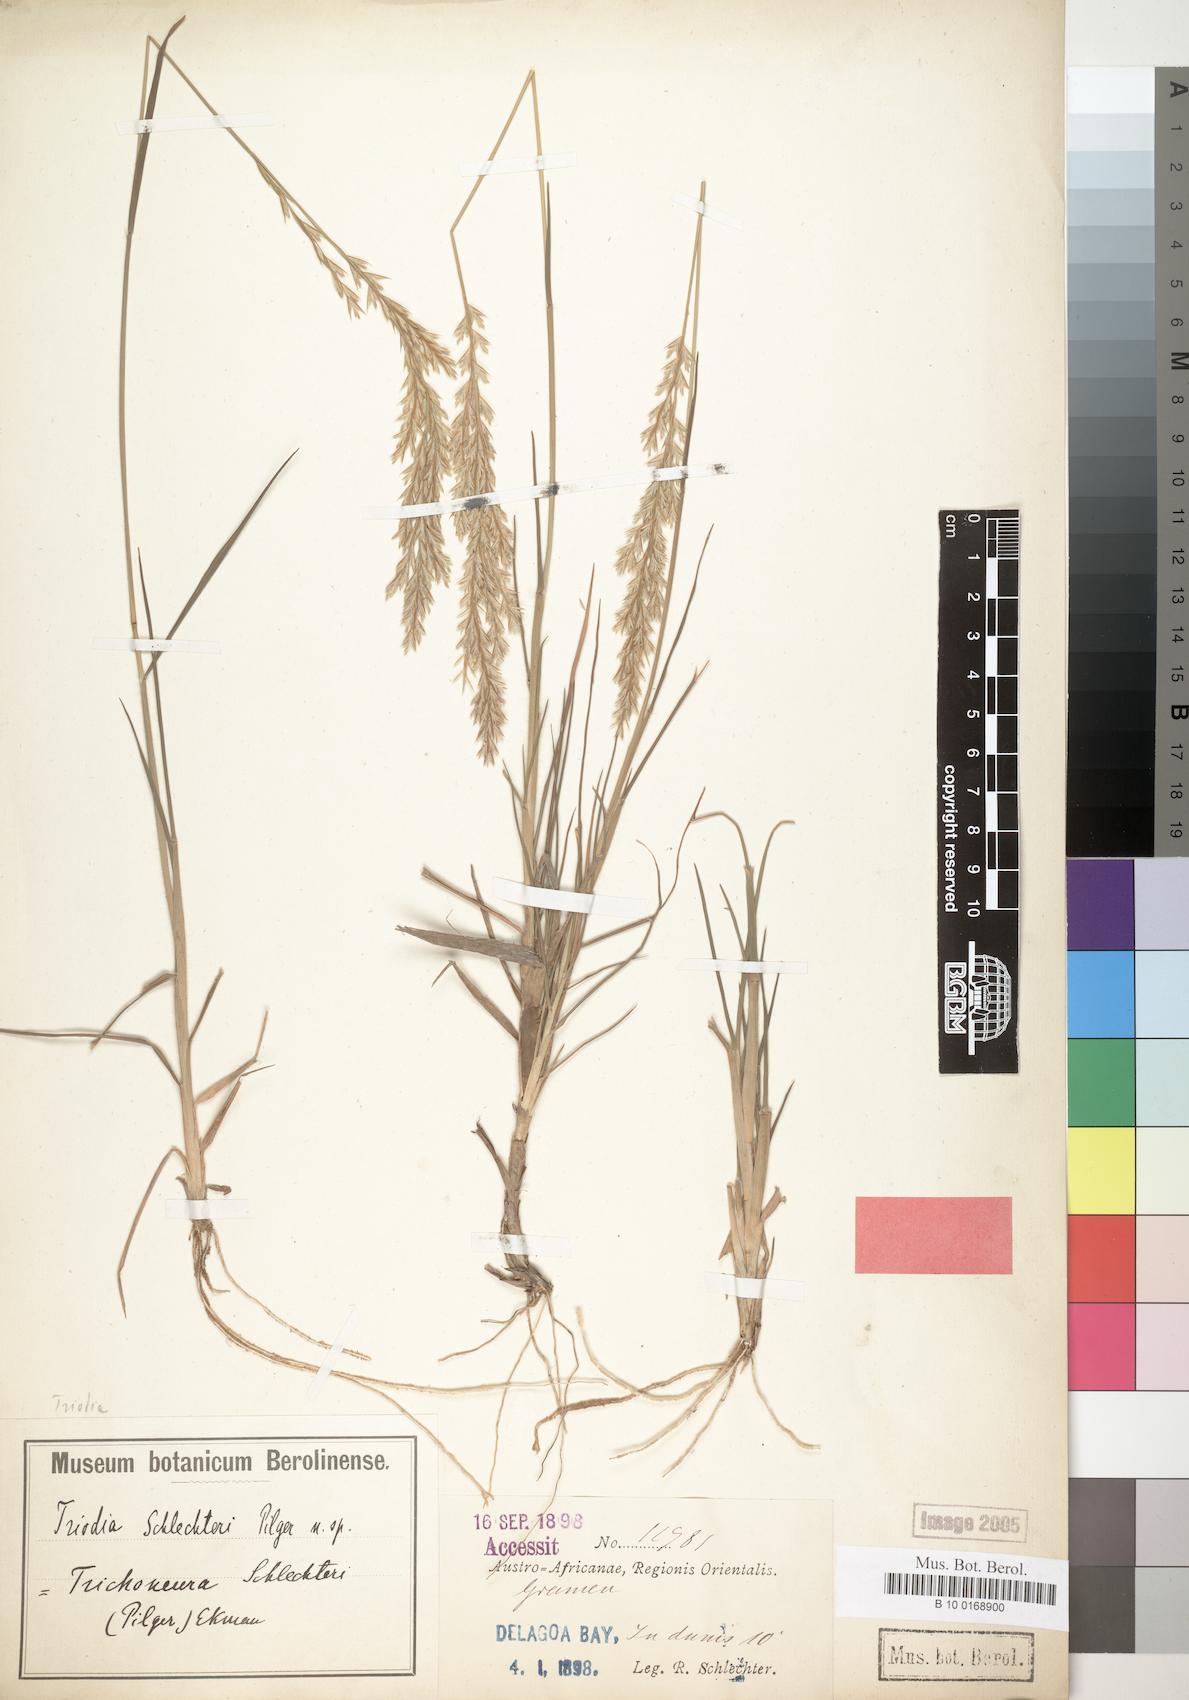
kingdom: Plantae
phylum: Tracheophyta
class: Liliopsida
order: Poales
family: Poaceae
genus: Trichoneura
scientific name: Trichoneura schlechteri
